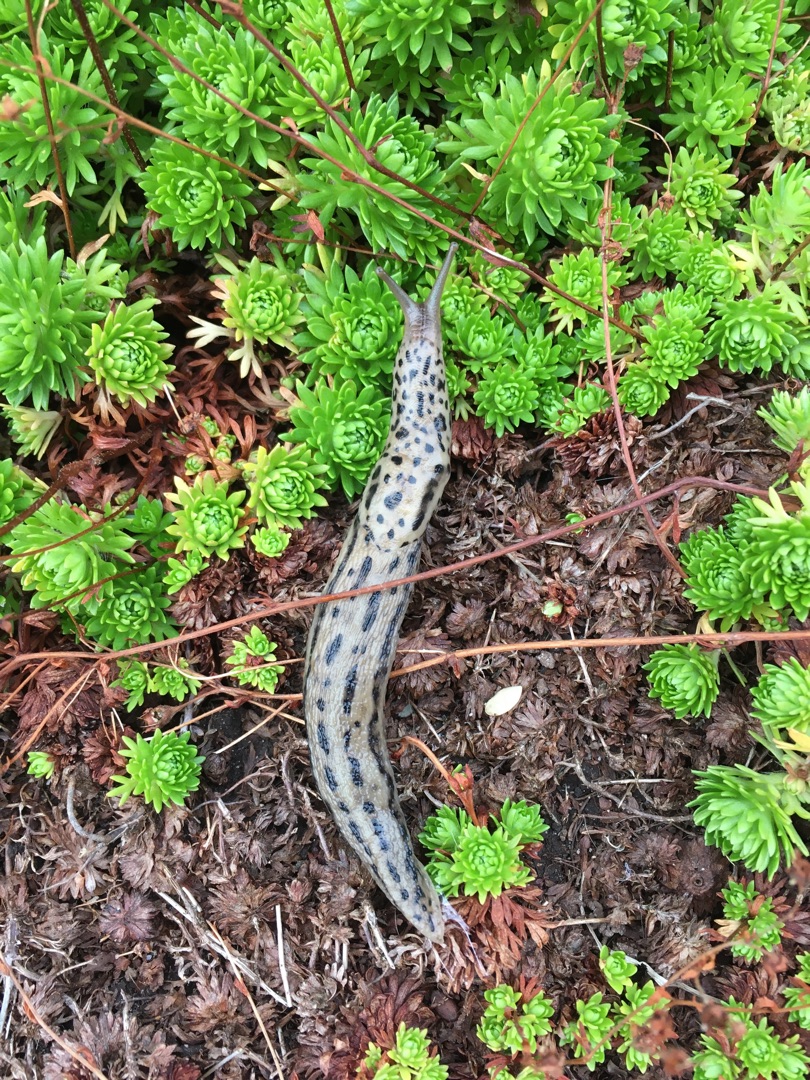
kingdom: Animalia
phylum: Mollusca
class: Gastropoda
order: Stylommatophora
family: Limacidae
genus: Limax
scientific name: Limax maximus
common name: Pantersnegl
